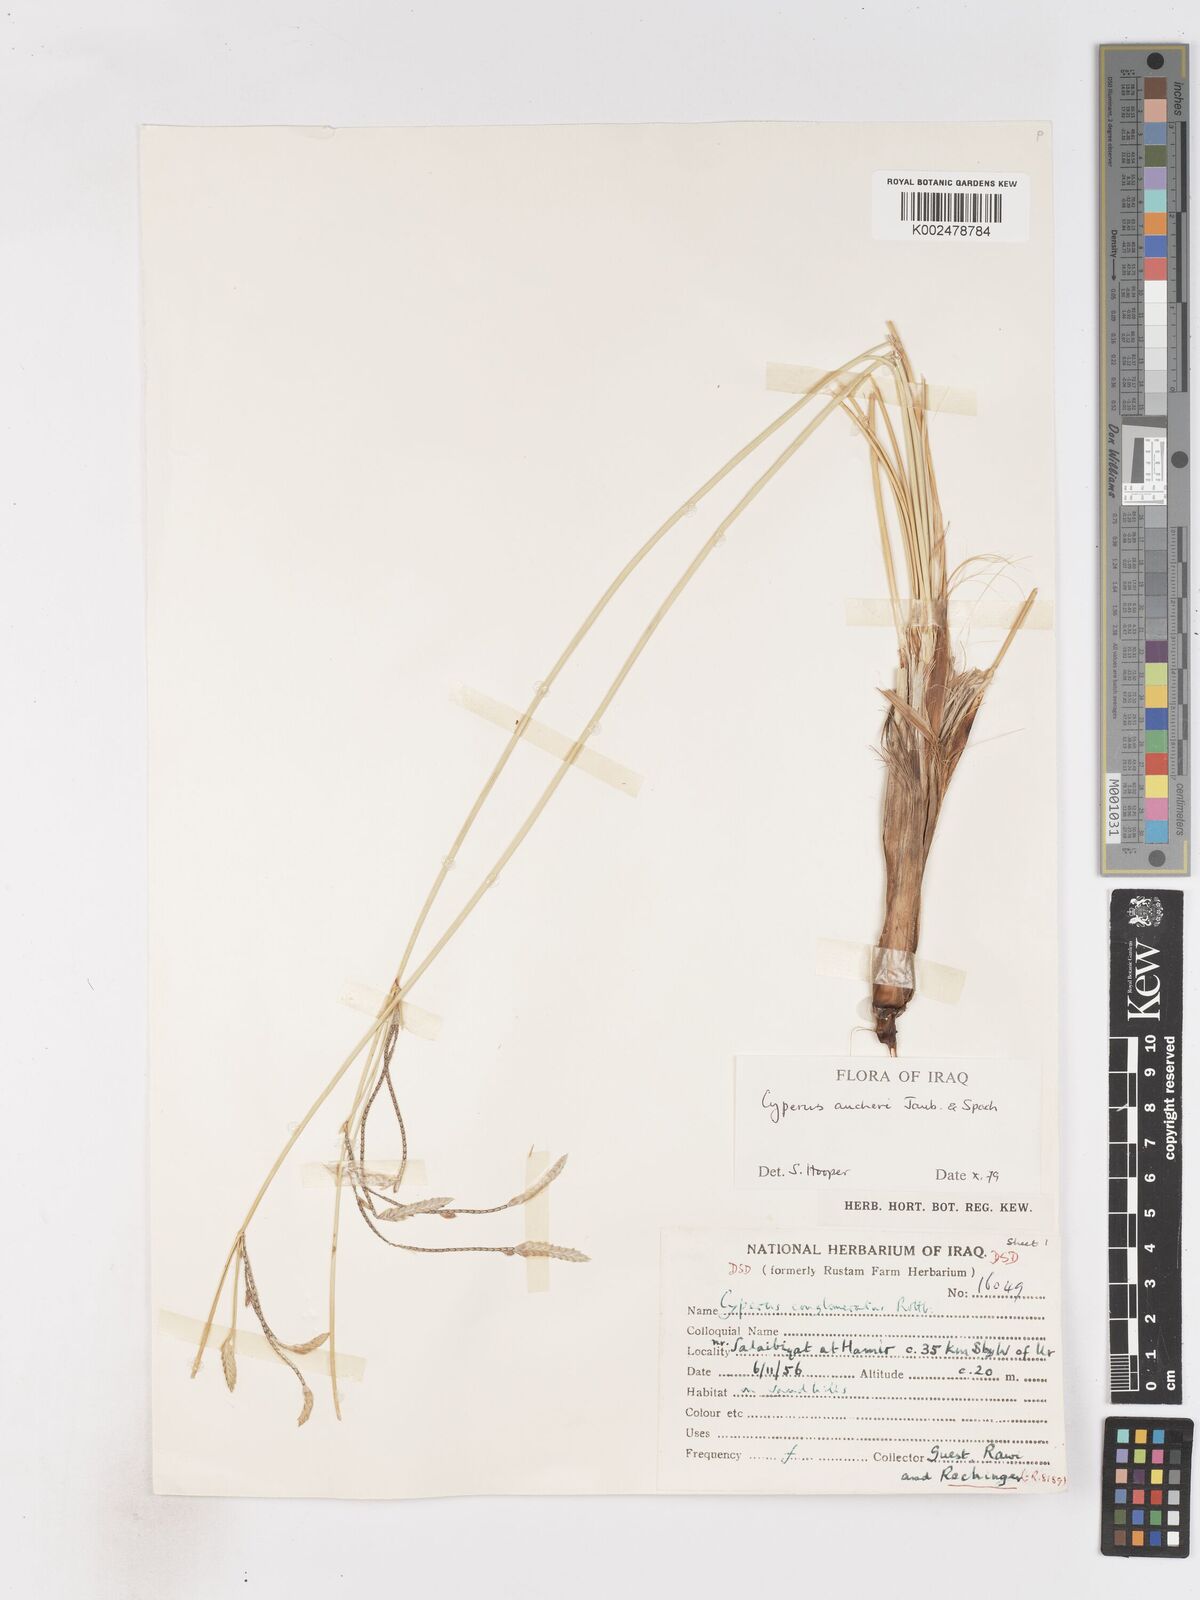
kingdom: Plantae
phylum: Tracheophyta
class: Liliopsida
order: Poales
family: Cyperaceae
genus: Cyperus
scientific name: Cyperus aucheri
